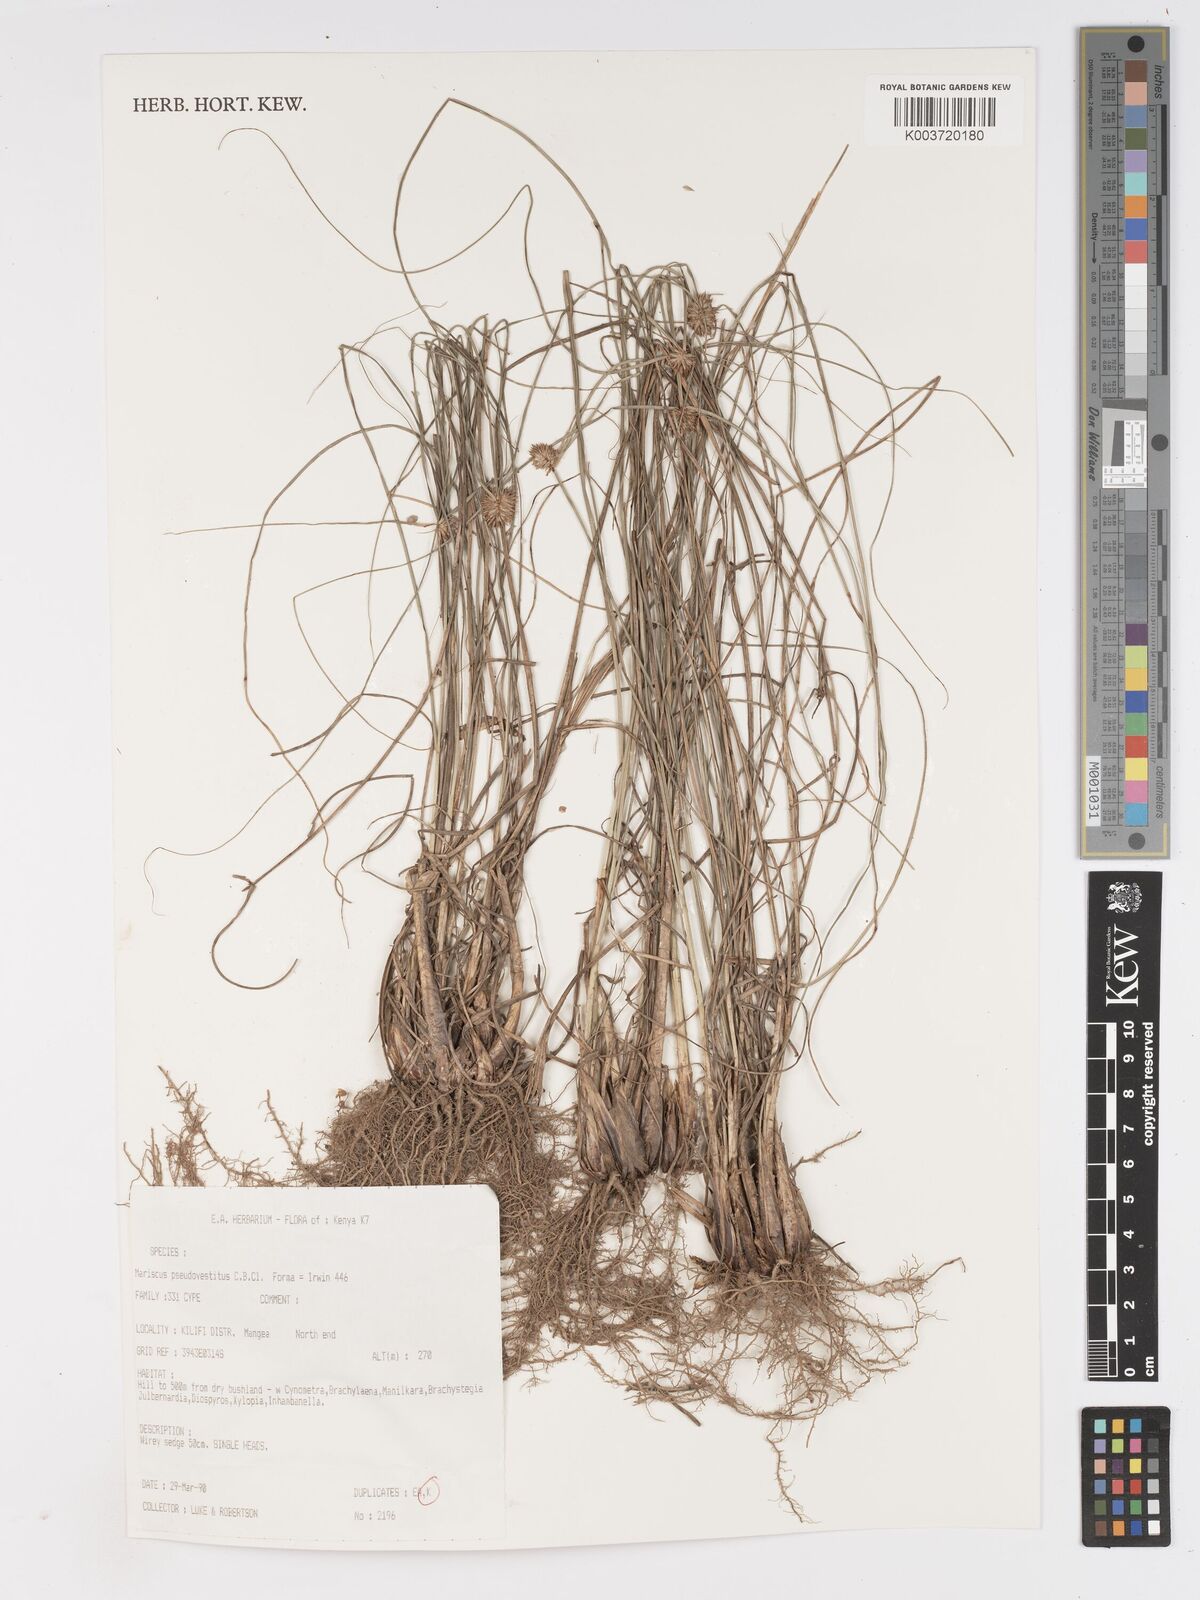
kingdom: Plantae
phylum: Tracheophyta
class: Liliopsida
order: Poales
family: Cyperaceae
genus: Cyperus
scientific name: Cyperus pseudovestitus
